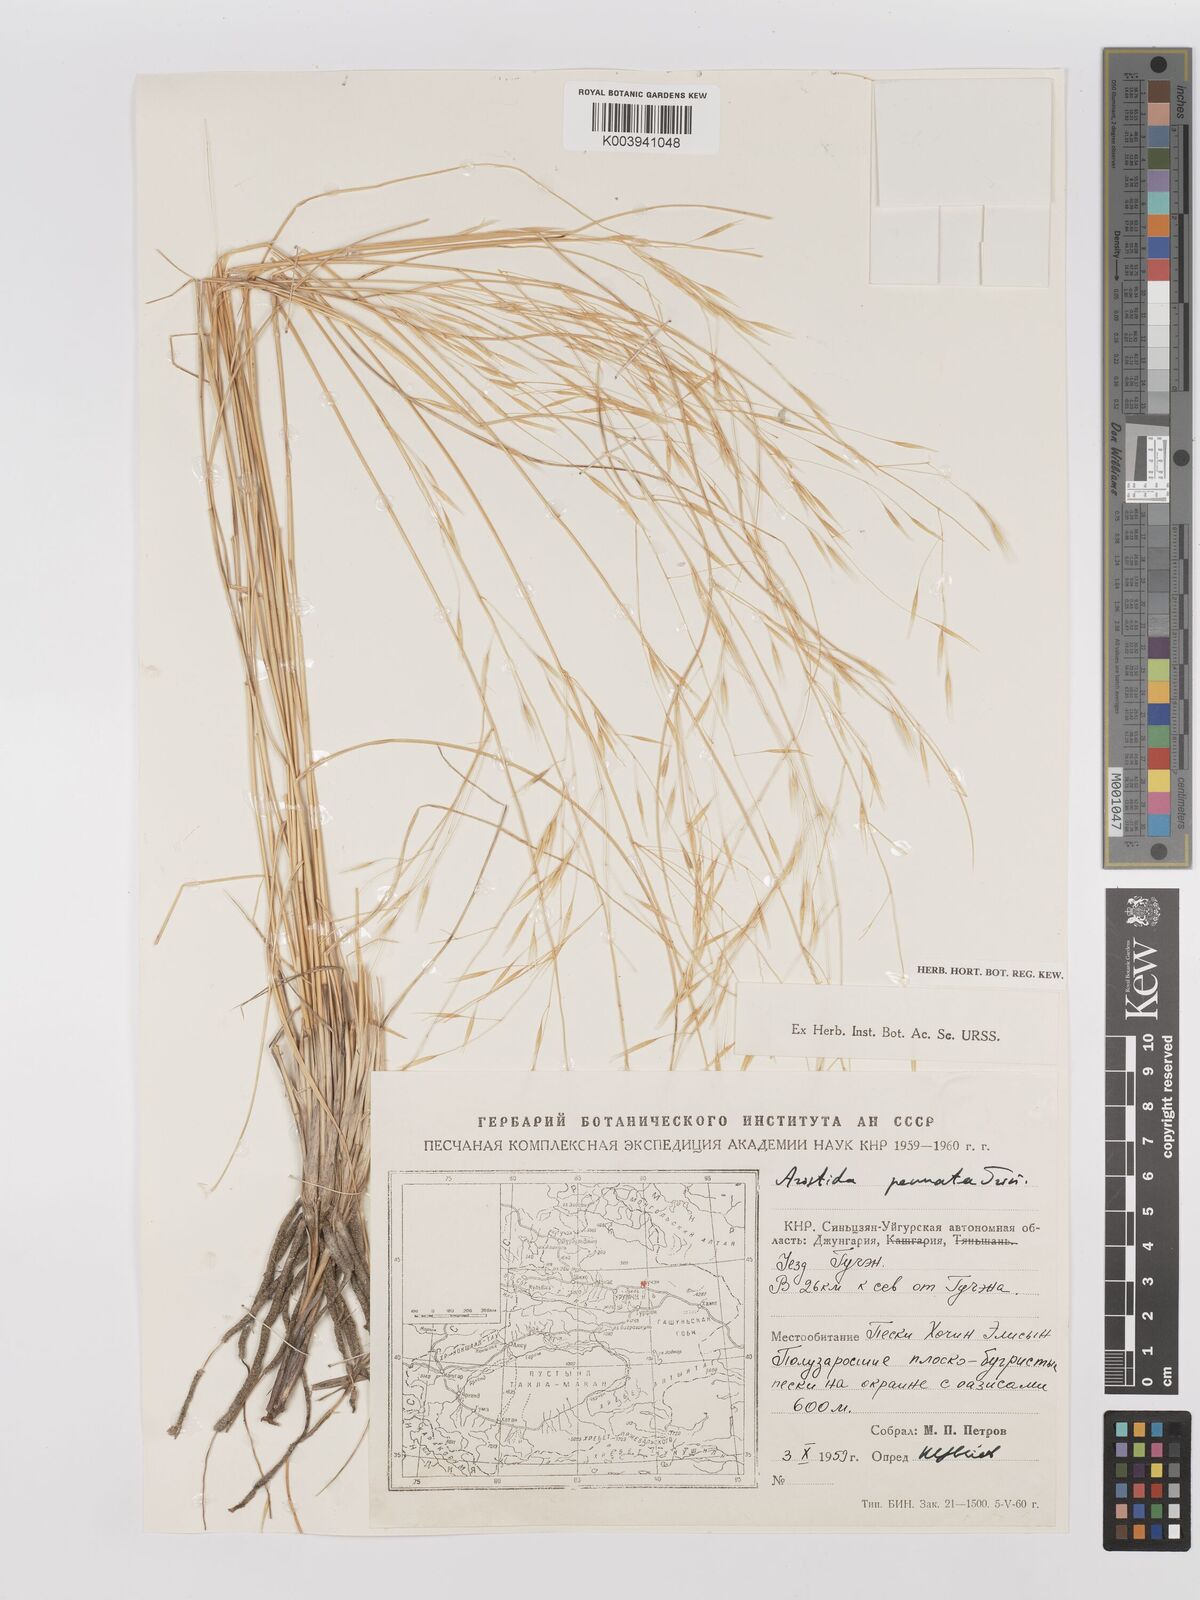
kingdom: Plantae
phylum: Tracheophyta
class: Liliopsida
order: Poales
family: Poaceae
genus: Stipagrostis
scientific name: Stipagrostis pennata
